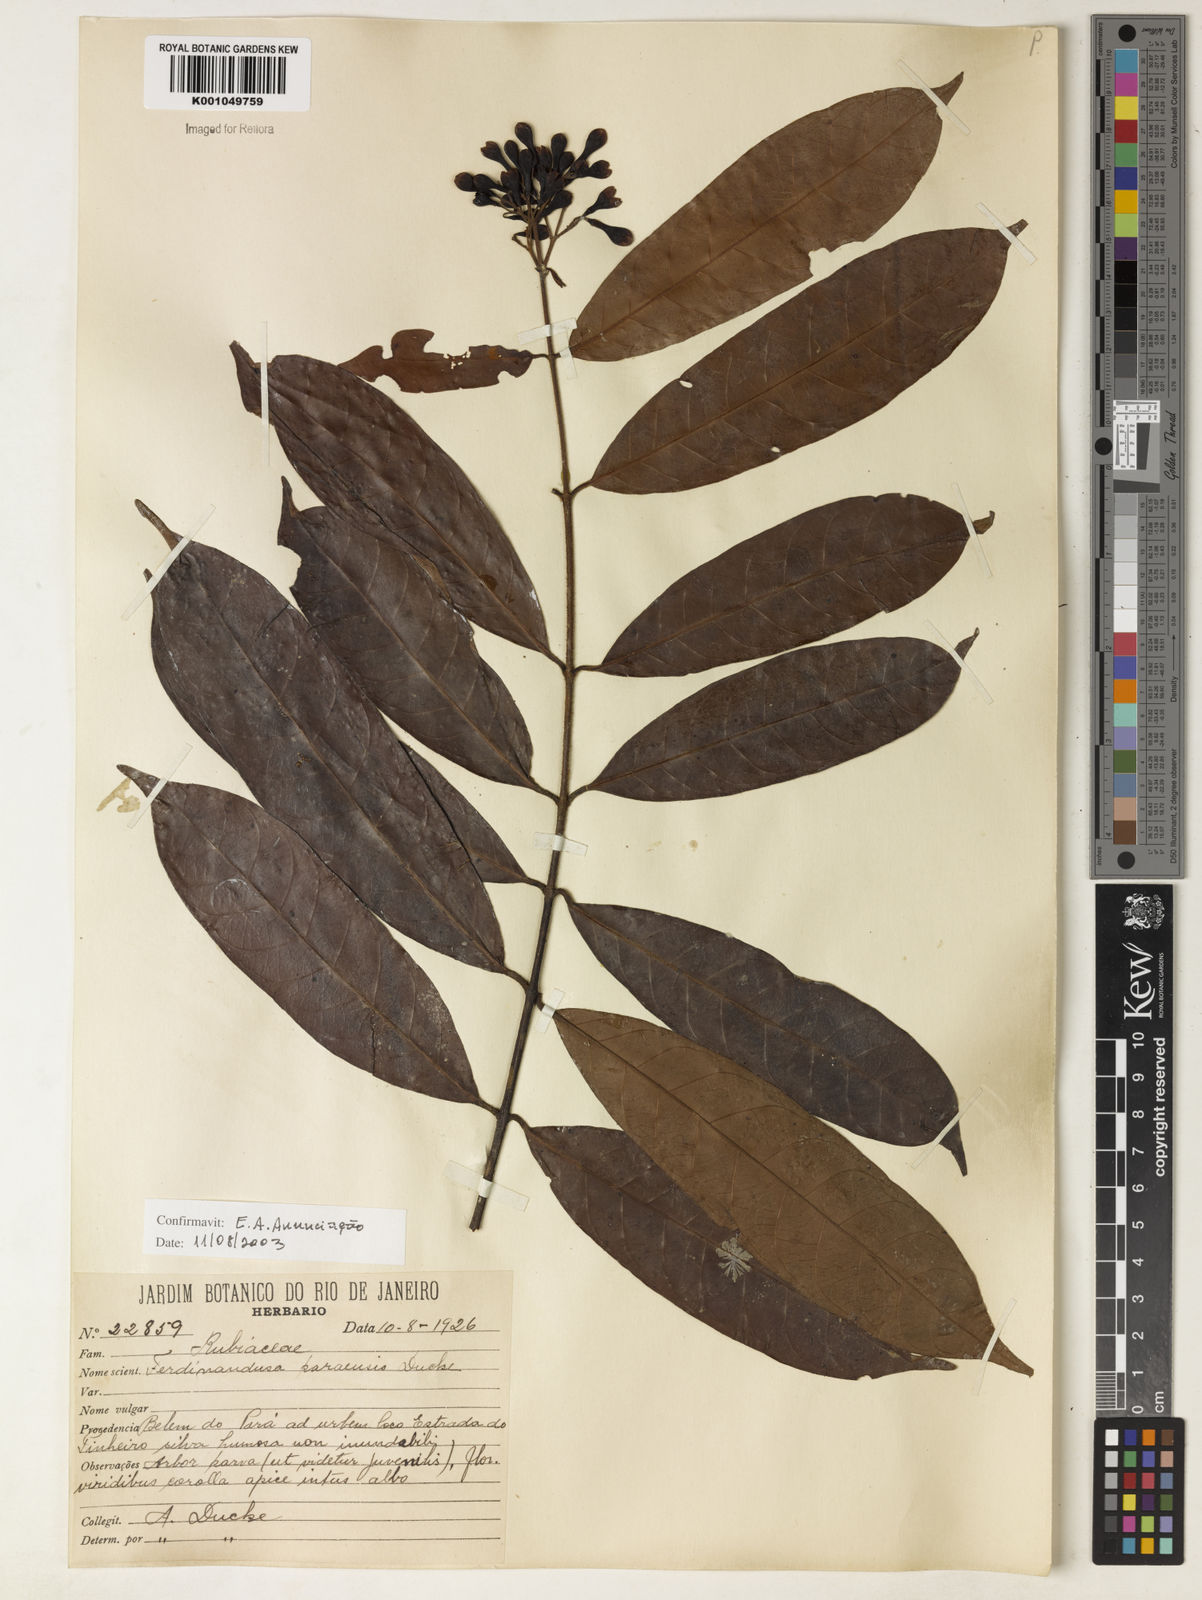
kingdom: Plantae
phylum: Tracheophyta
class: Magnoliopsida
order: Gentianales
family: Rubiaceae
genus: Ferdinandusa
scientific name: Ferdinandusa paraensis
